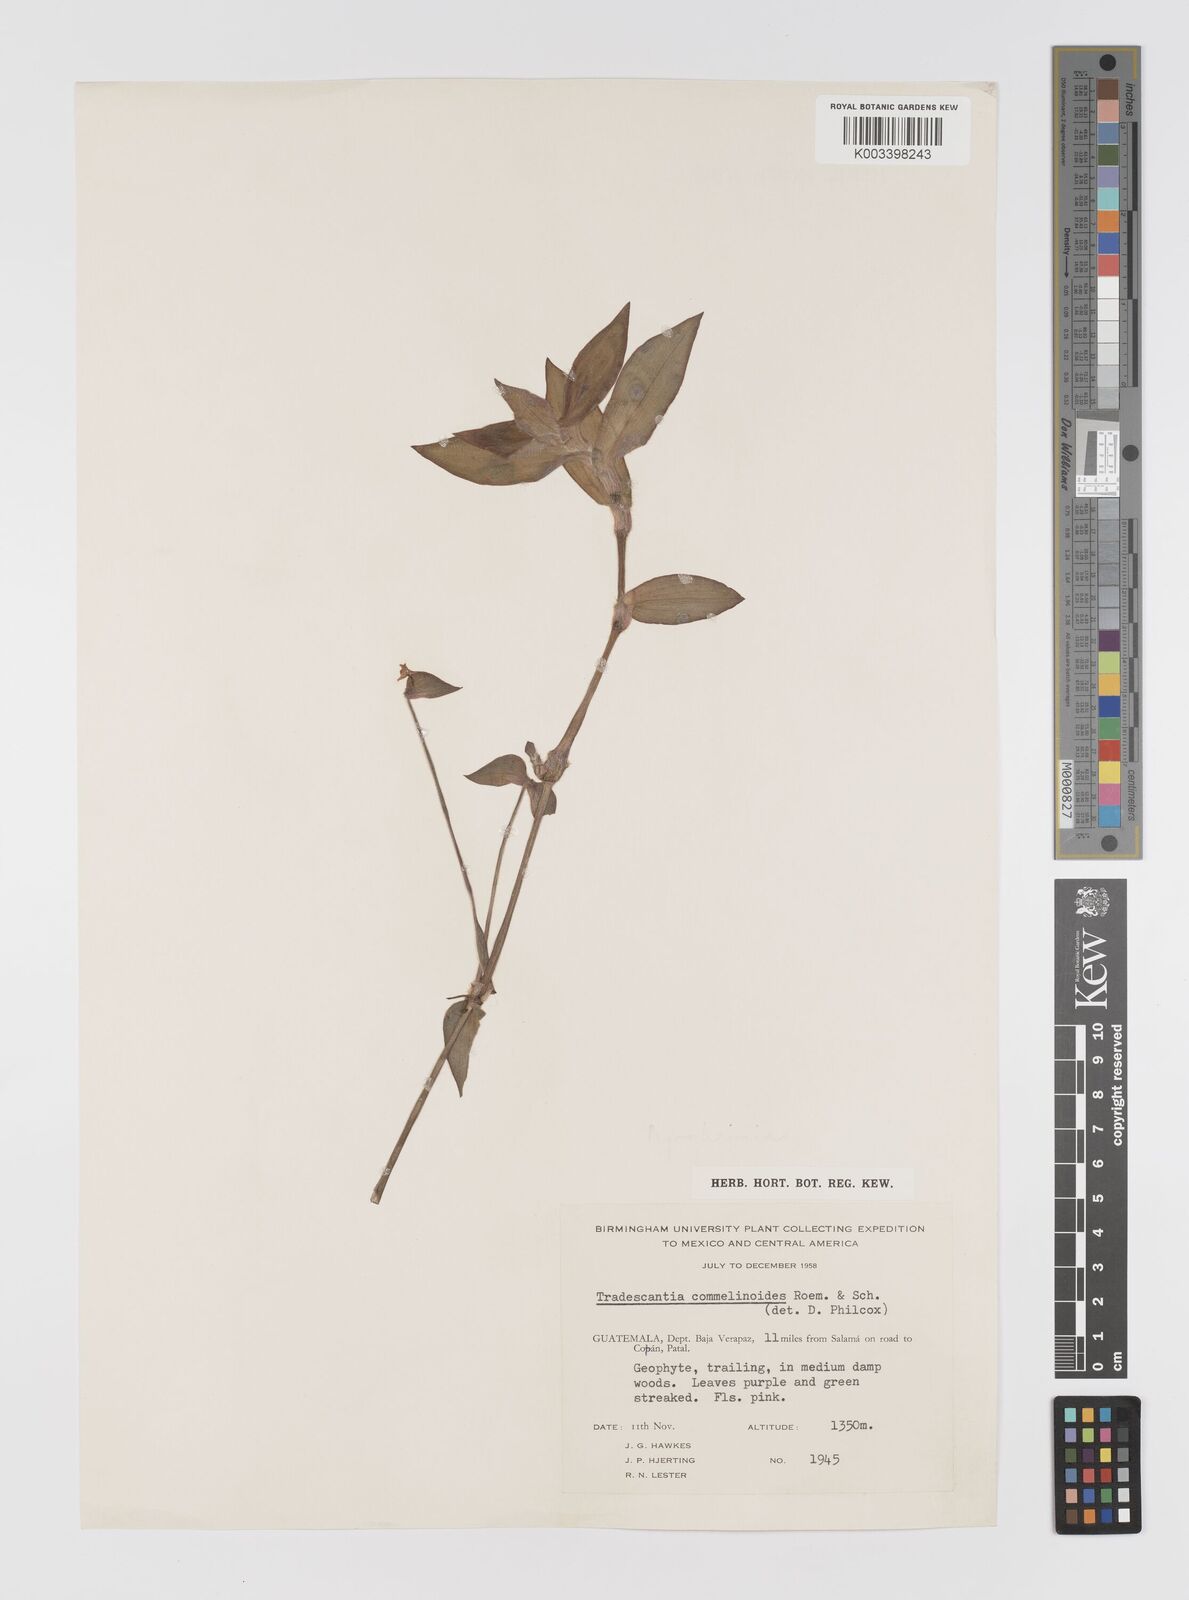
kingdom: Plantae
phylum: Tracheophyta
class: Liliopsida
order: Commelinales
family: Commelinaceae
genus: Tradescantia
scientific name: Tradescantia standleyi
